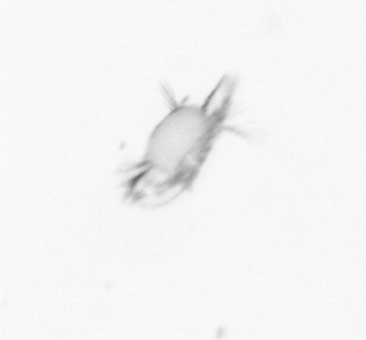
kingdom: Animalia
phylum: Annelida
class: Polychaeta
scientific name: Polychaeta
